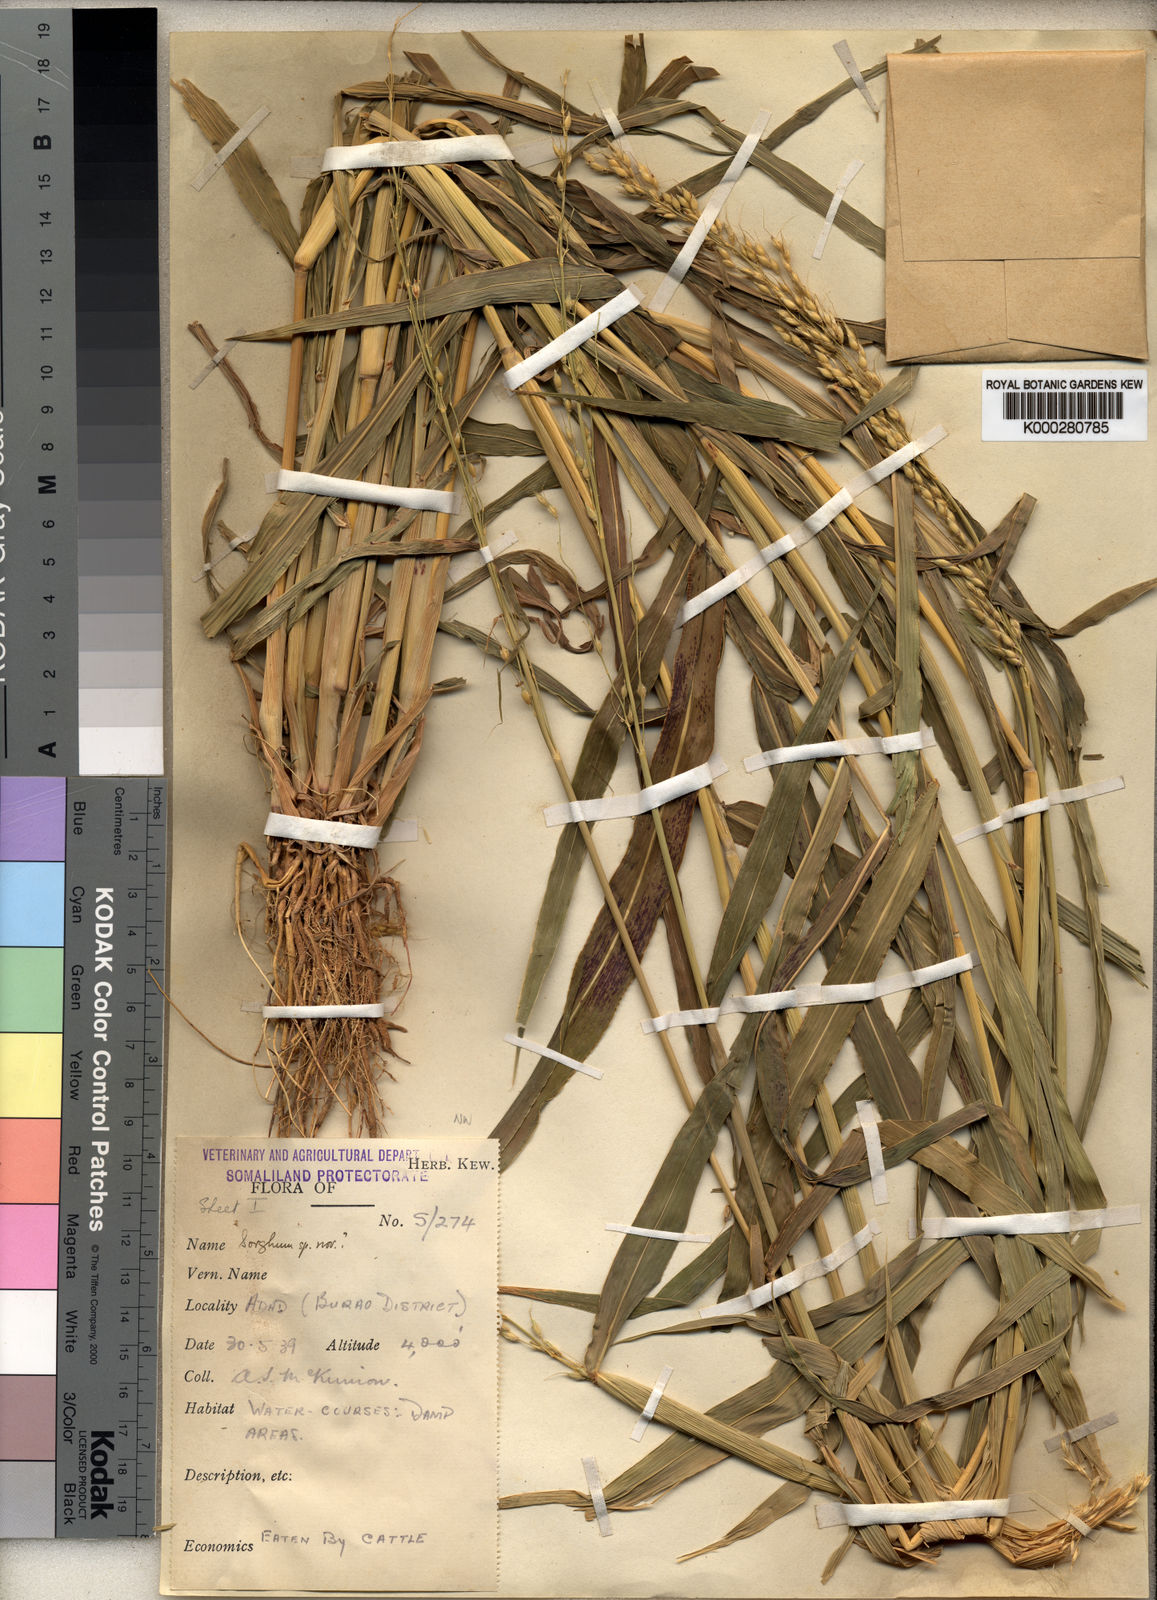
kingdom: Plantae
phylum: Tracheophyta
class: Liliopsida
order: Poales
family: Poaceae
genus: Sorghum
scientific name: Sorghum arundinaceum
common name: Sorghum
